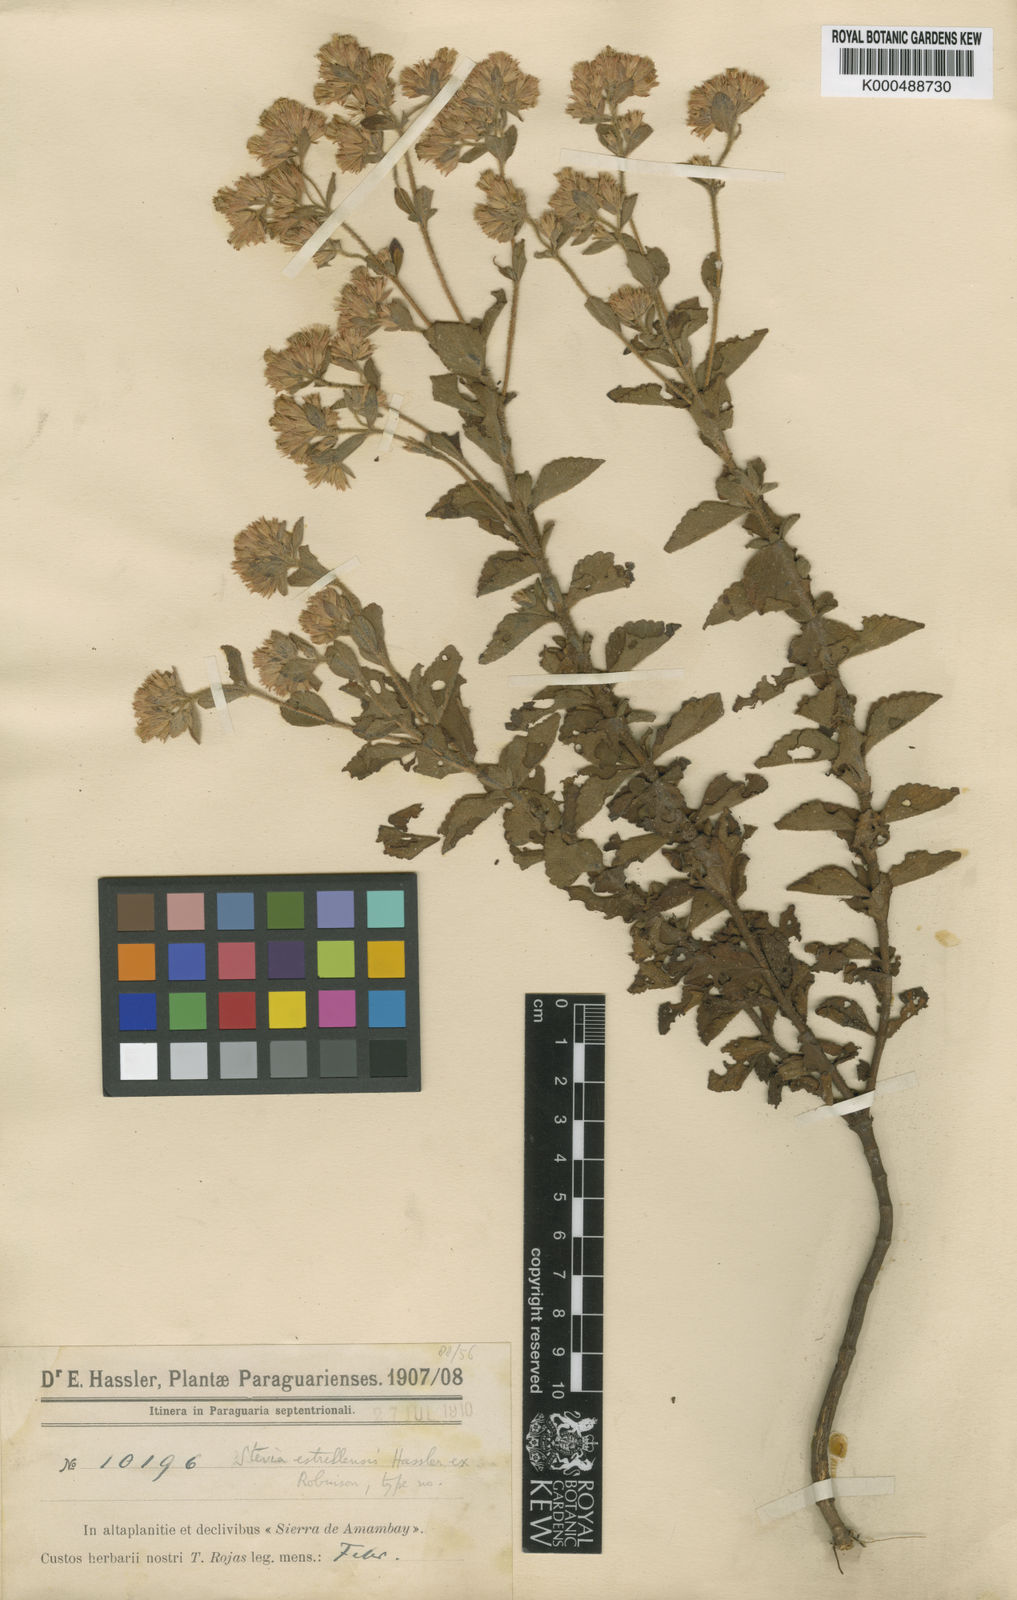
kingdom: Plantae
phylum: Tracheophyta
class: Magnoliopsida
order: Asterales
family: Asteraceae
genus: Stevia
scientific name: Stevia estrellensis
